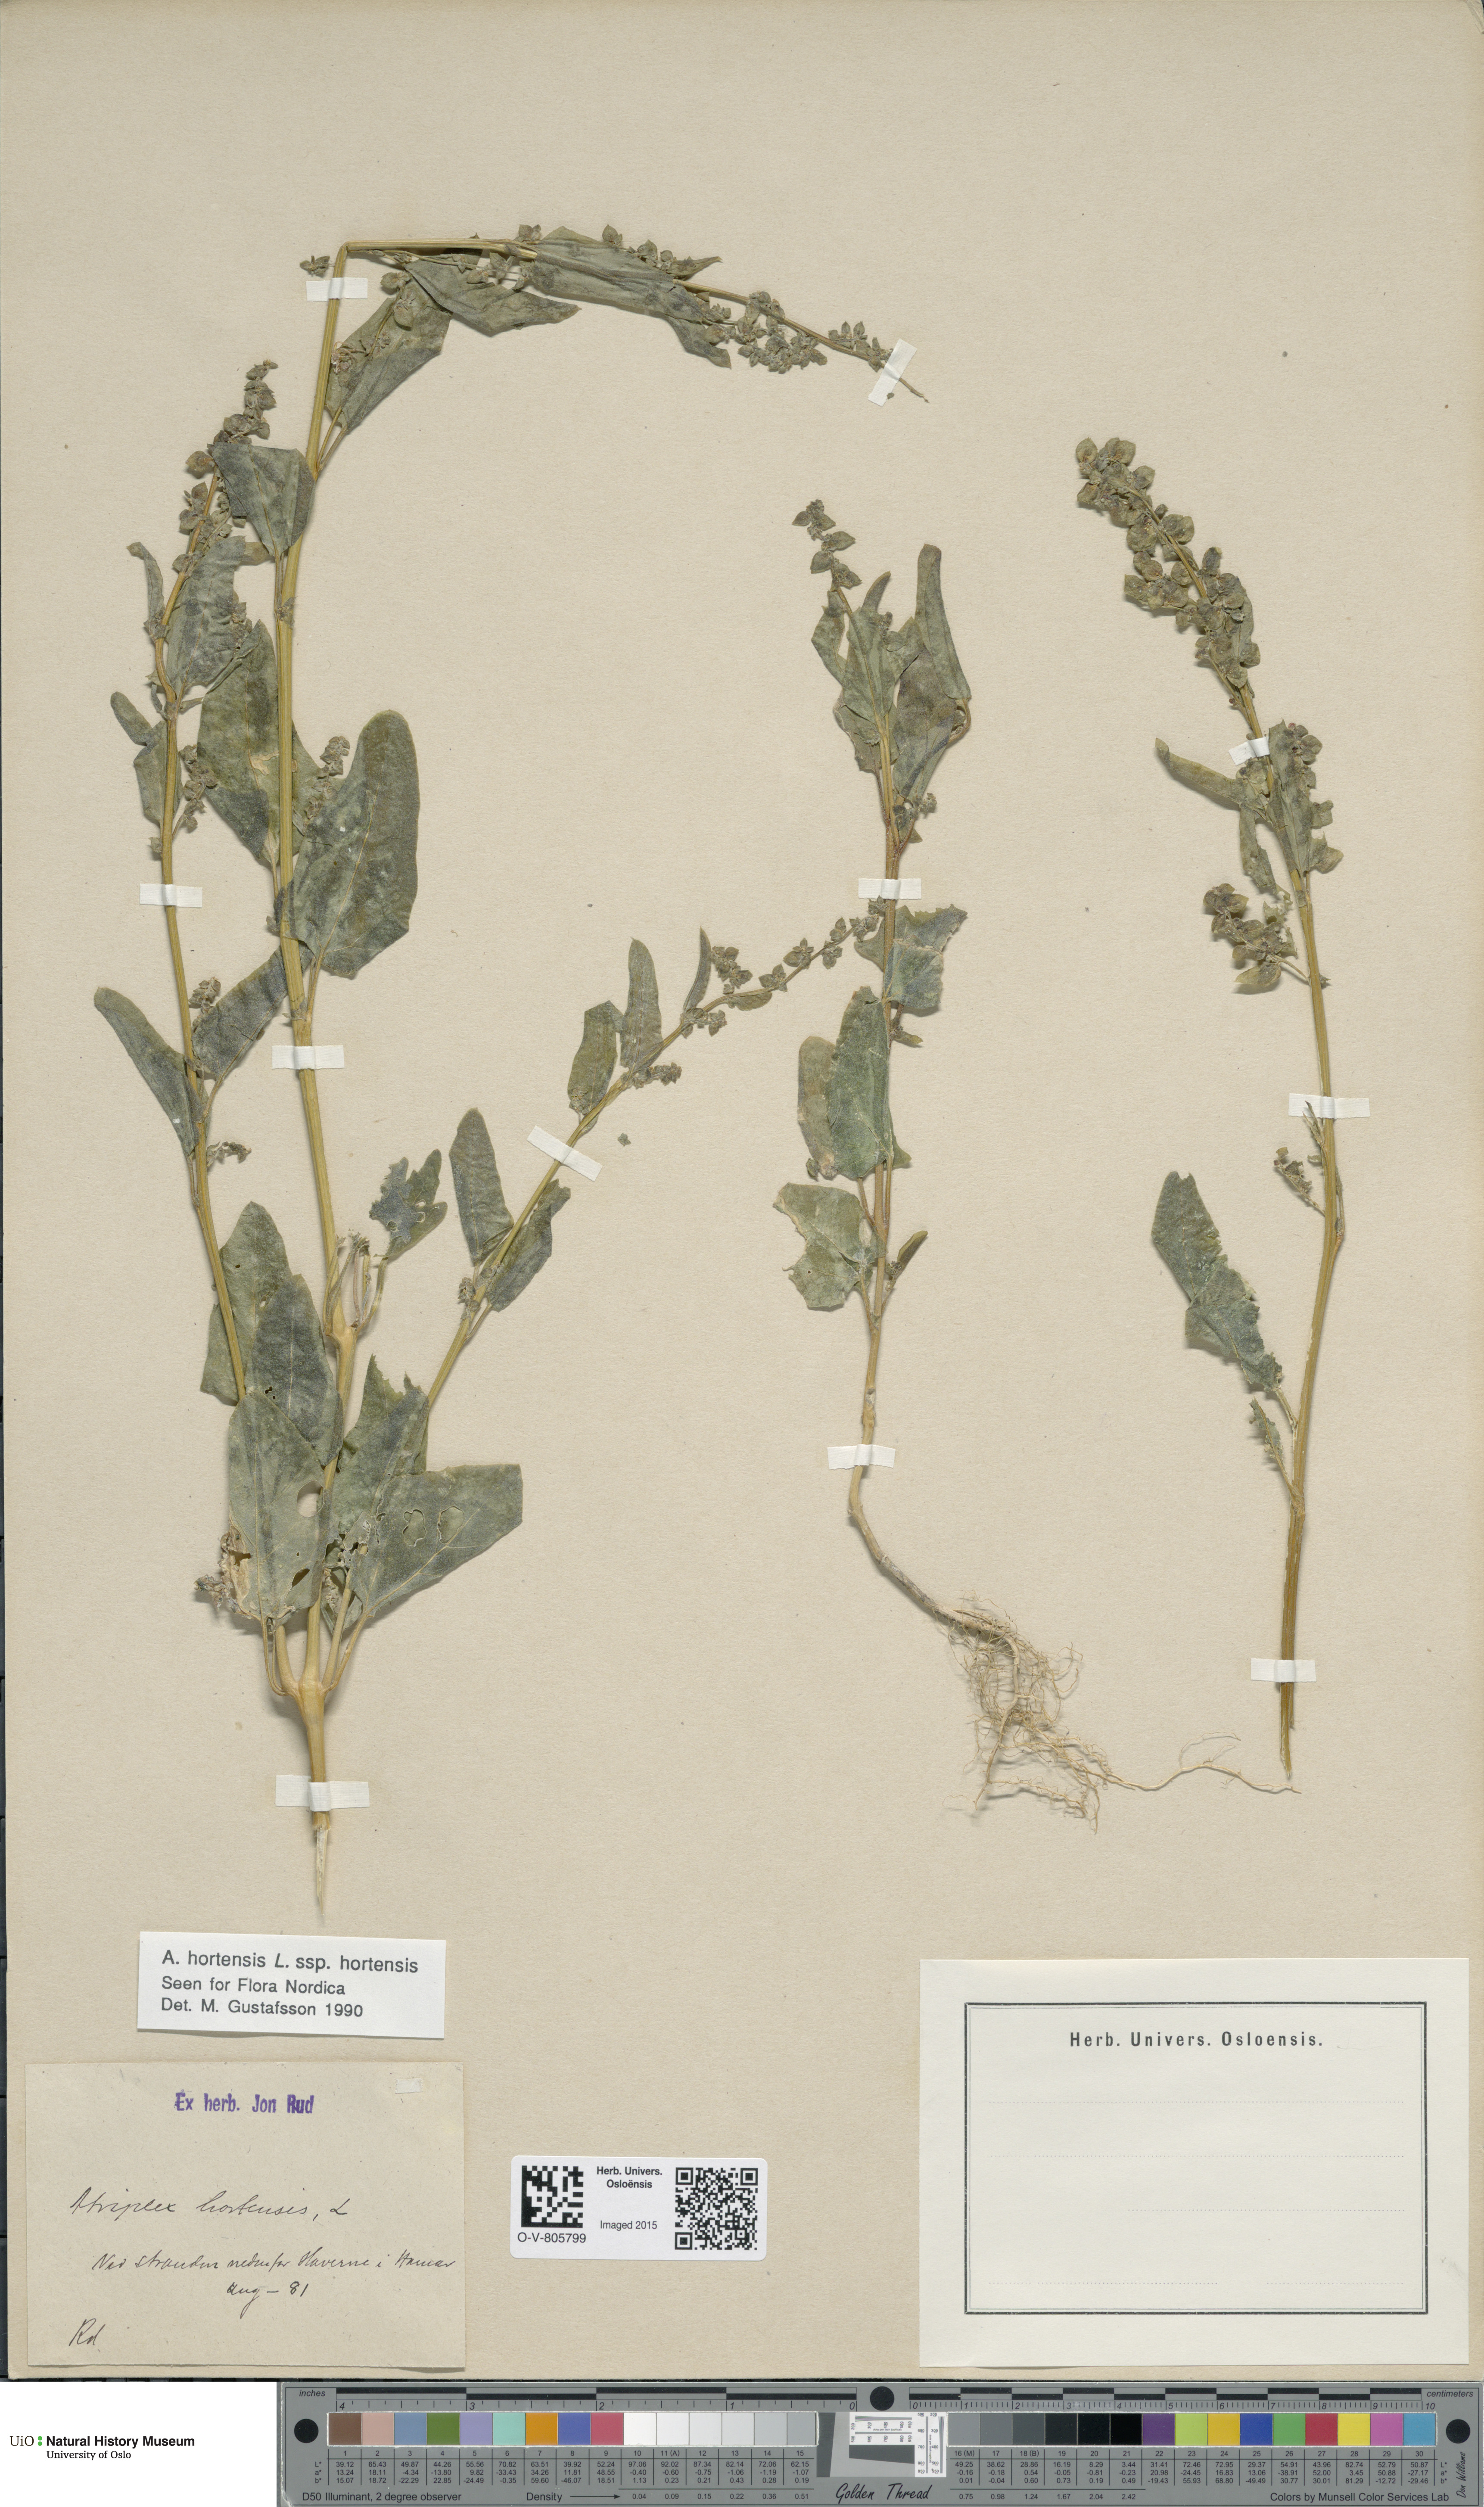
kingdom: Plantae
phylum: Tracheophyta
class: Magnoliopsida
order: Caryophyllales
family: Amaranthaceae
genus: Atriplex
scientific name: Atriplex hortensis
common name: Garden orache
